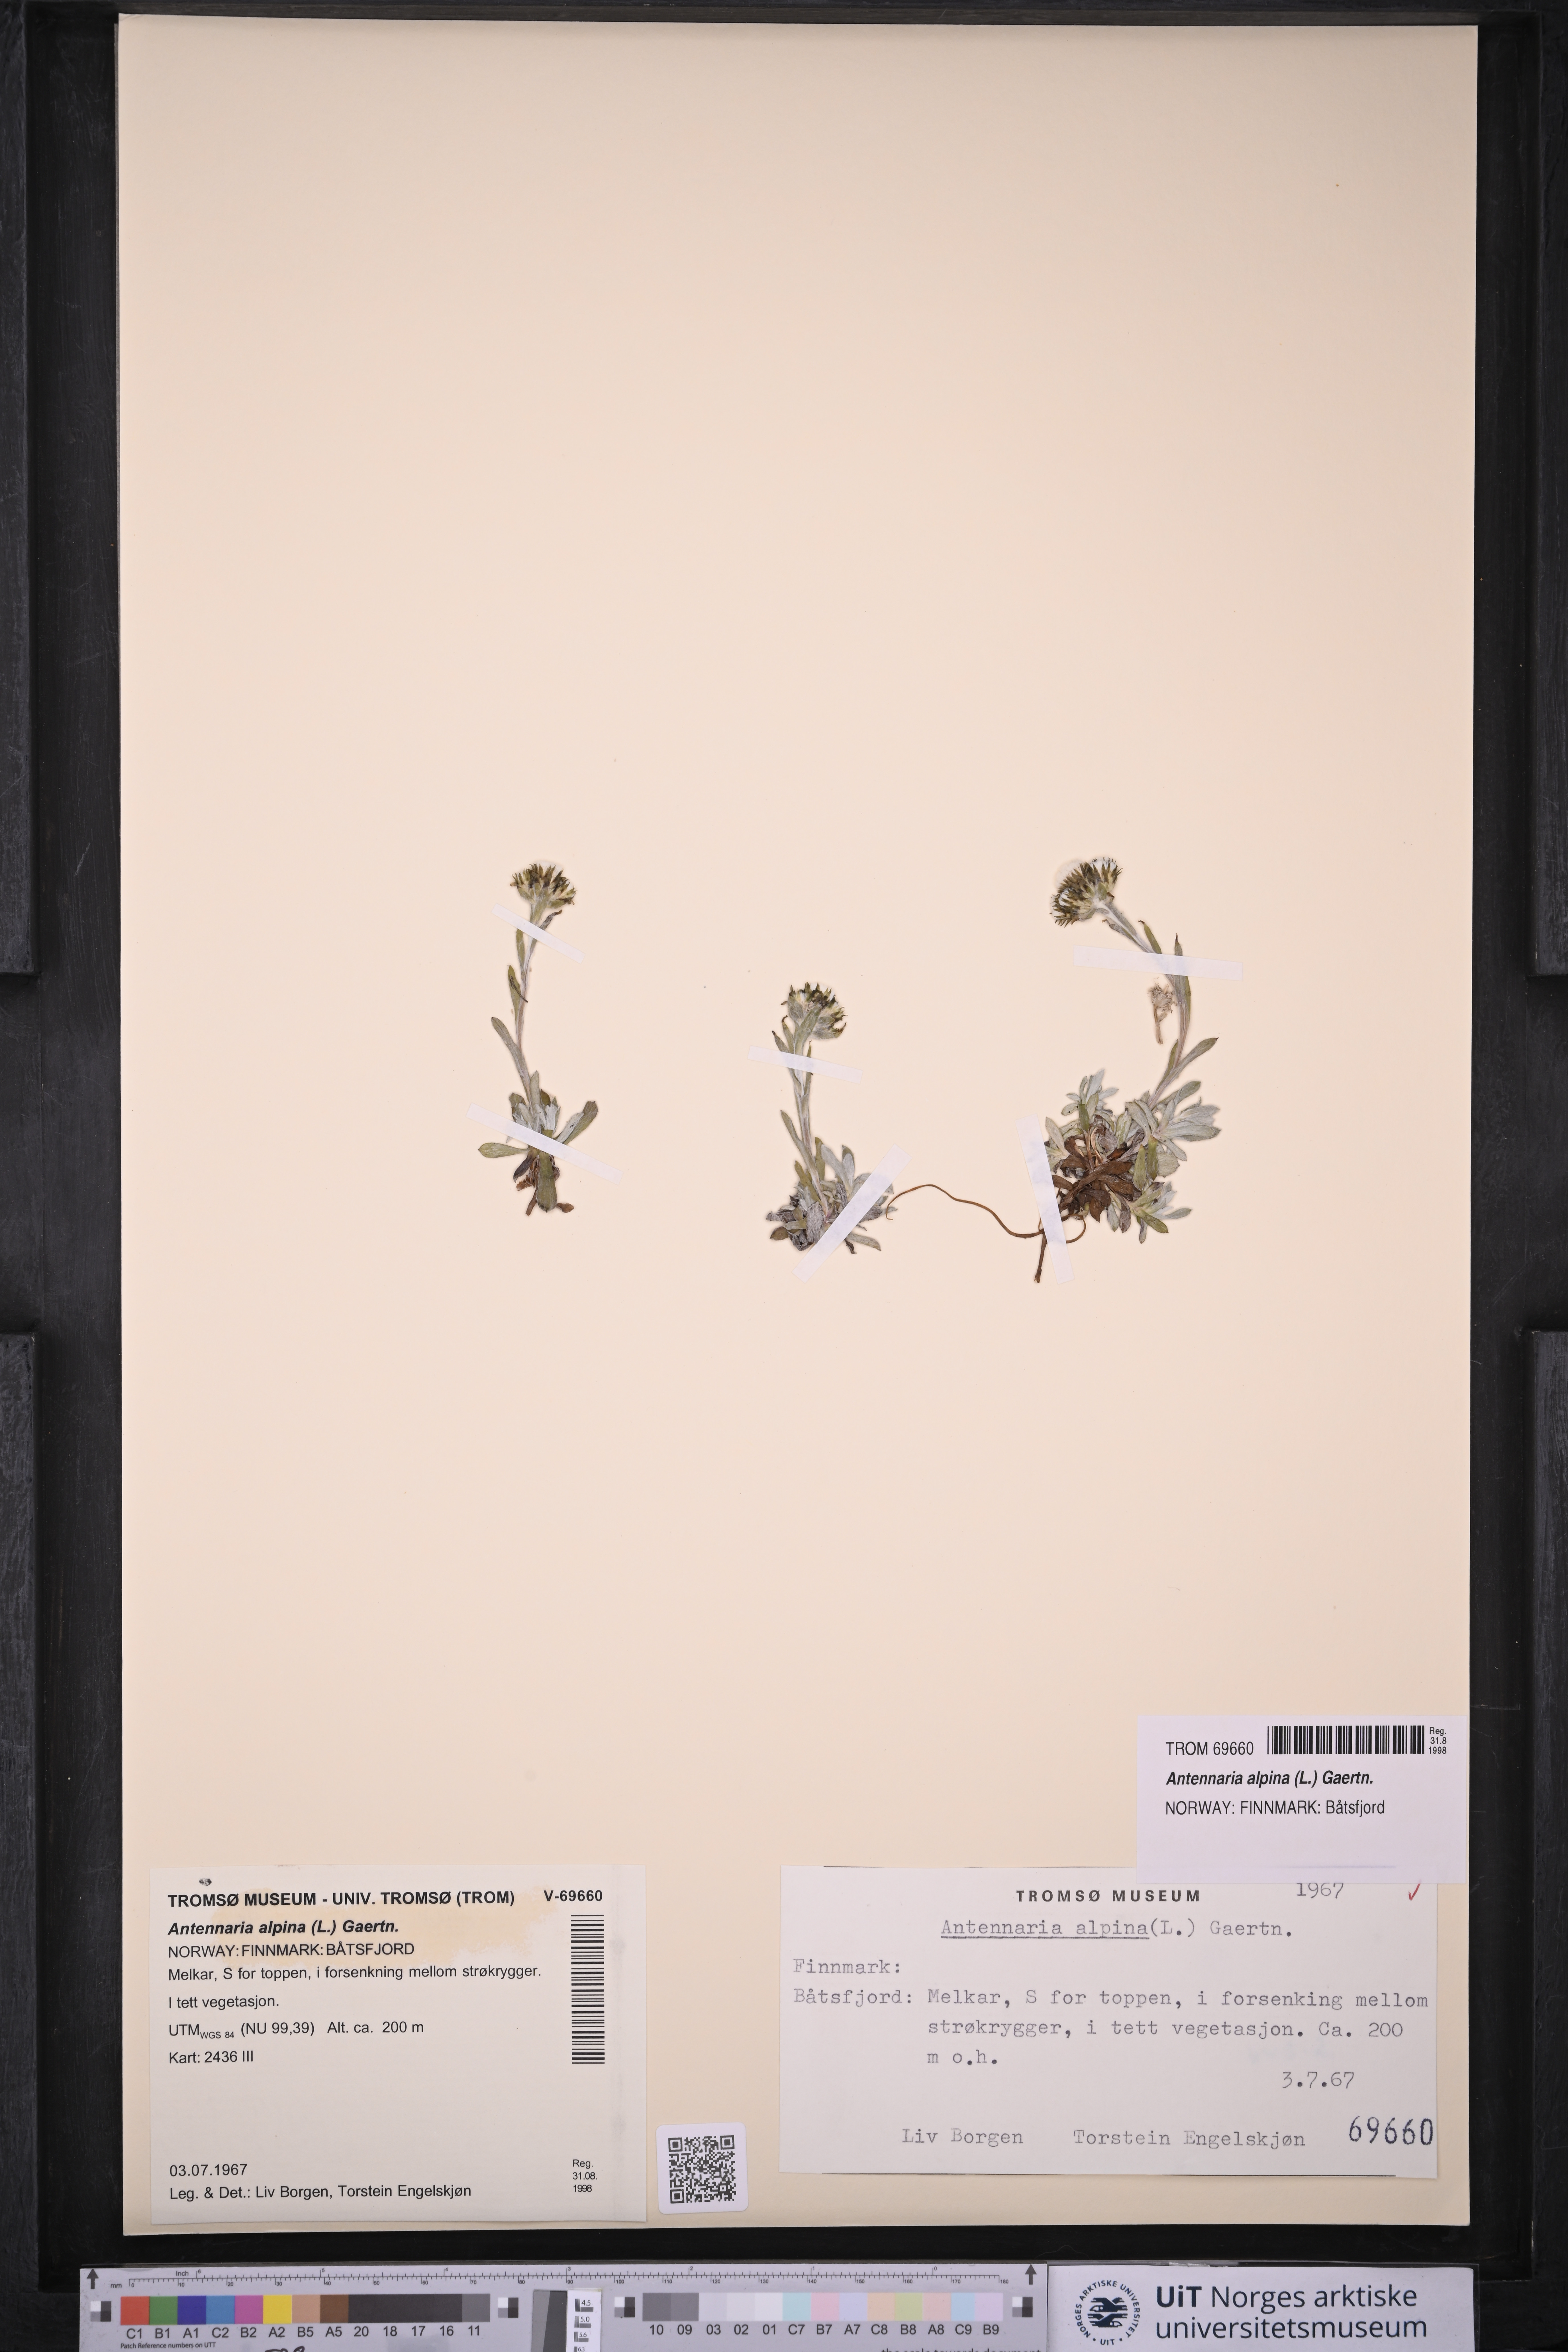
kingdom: Plantae
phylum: Tracheophyta
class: Magnoliopsida
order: Asterales
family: Asteraceae
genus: Antennaria
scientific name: Antennaria alpina
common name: Alpine pussytoes
